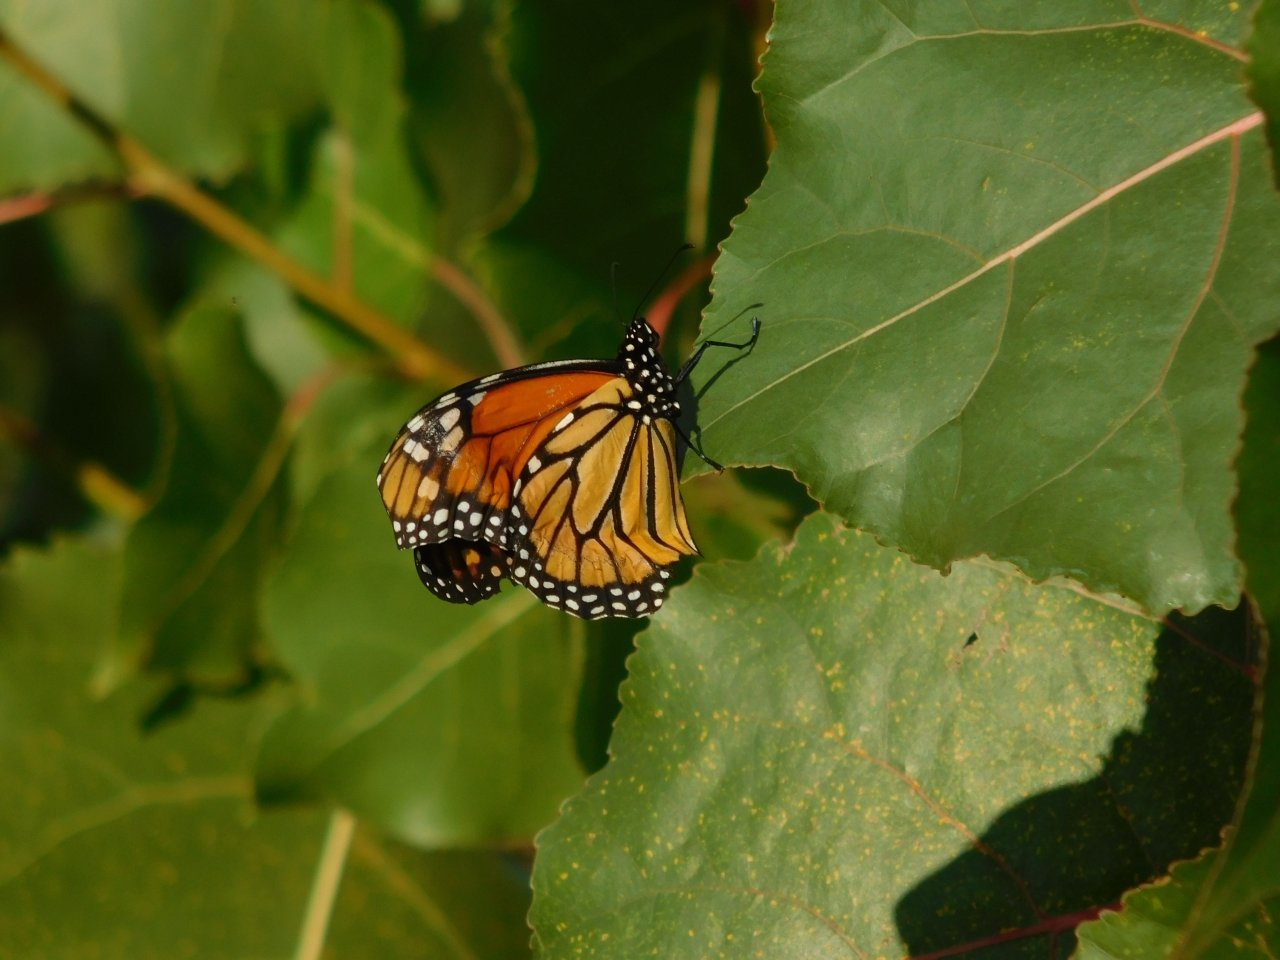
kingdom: Animalia
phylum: Arthropoda
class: Insecta
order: Lepidoptera
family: Nymphalidae
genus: Danaus
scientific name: Danaus plexippus
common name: Monarch
